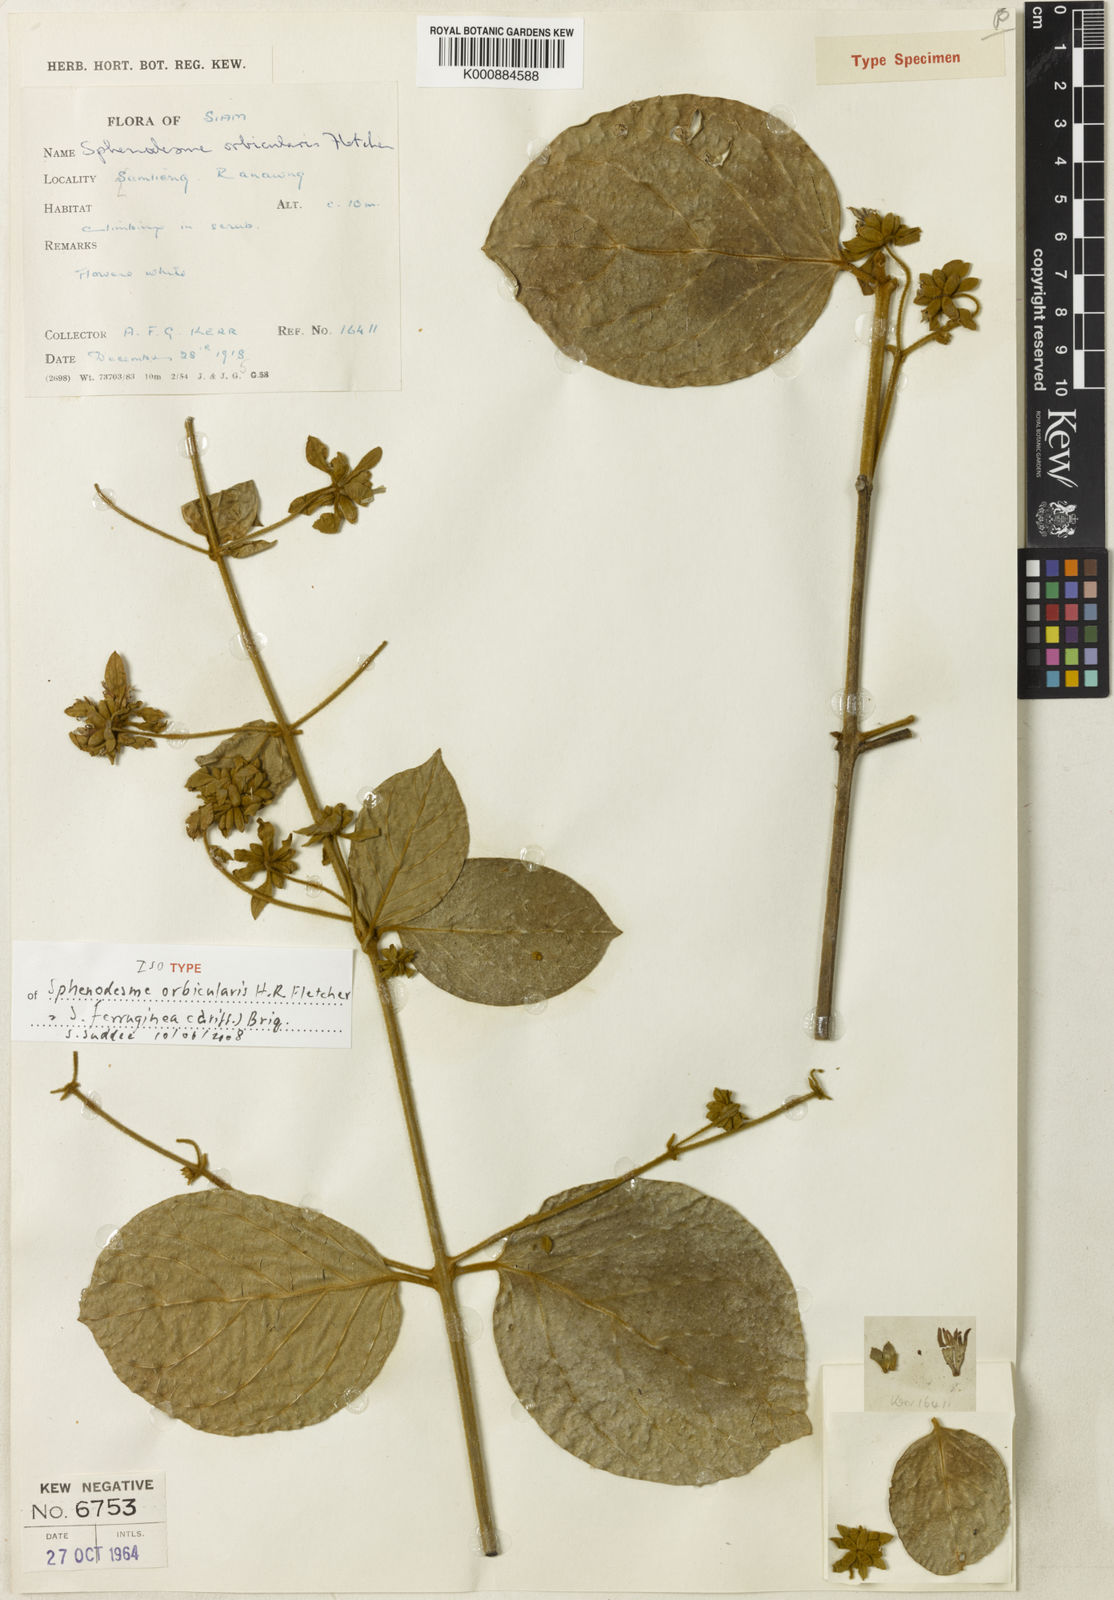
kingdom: Plantae
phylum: Tracheophyta
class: Magnoliopsida
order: Lamiales
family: Lamiaceae
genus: Sphenodesme
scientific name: Sphenodesme ferruginea
